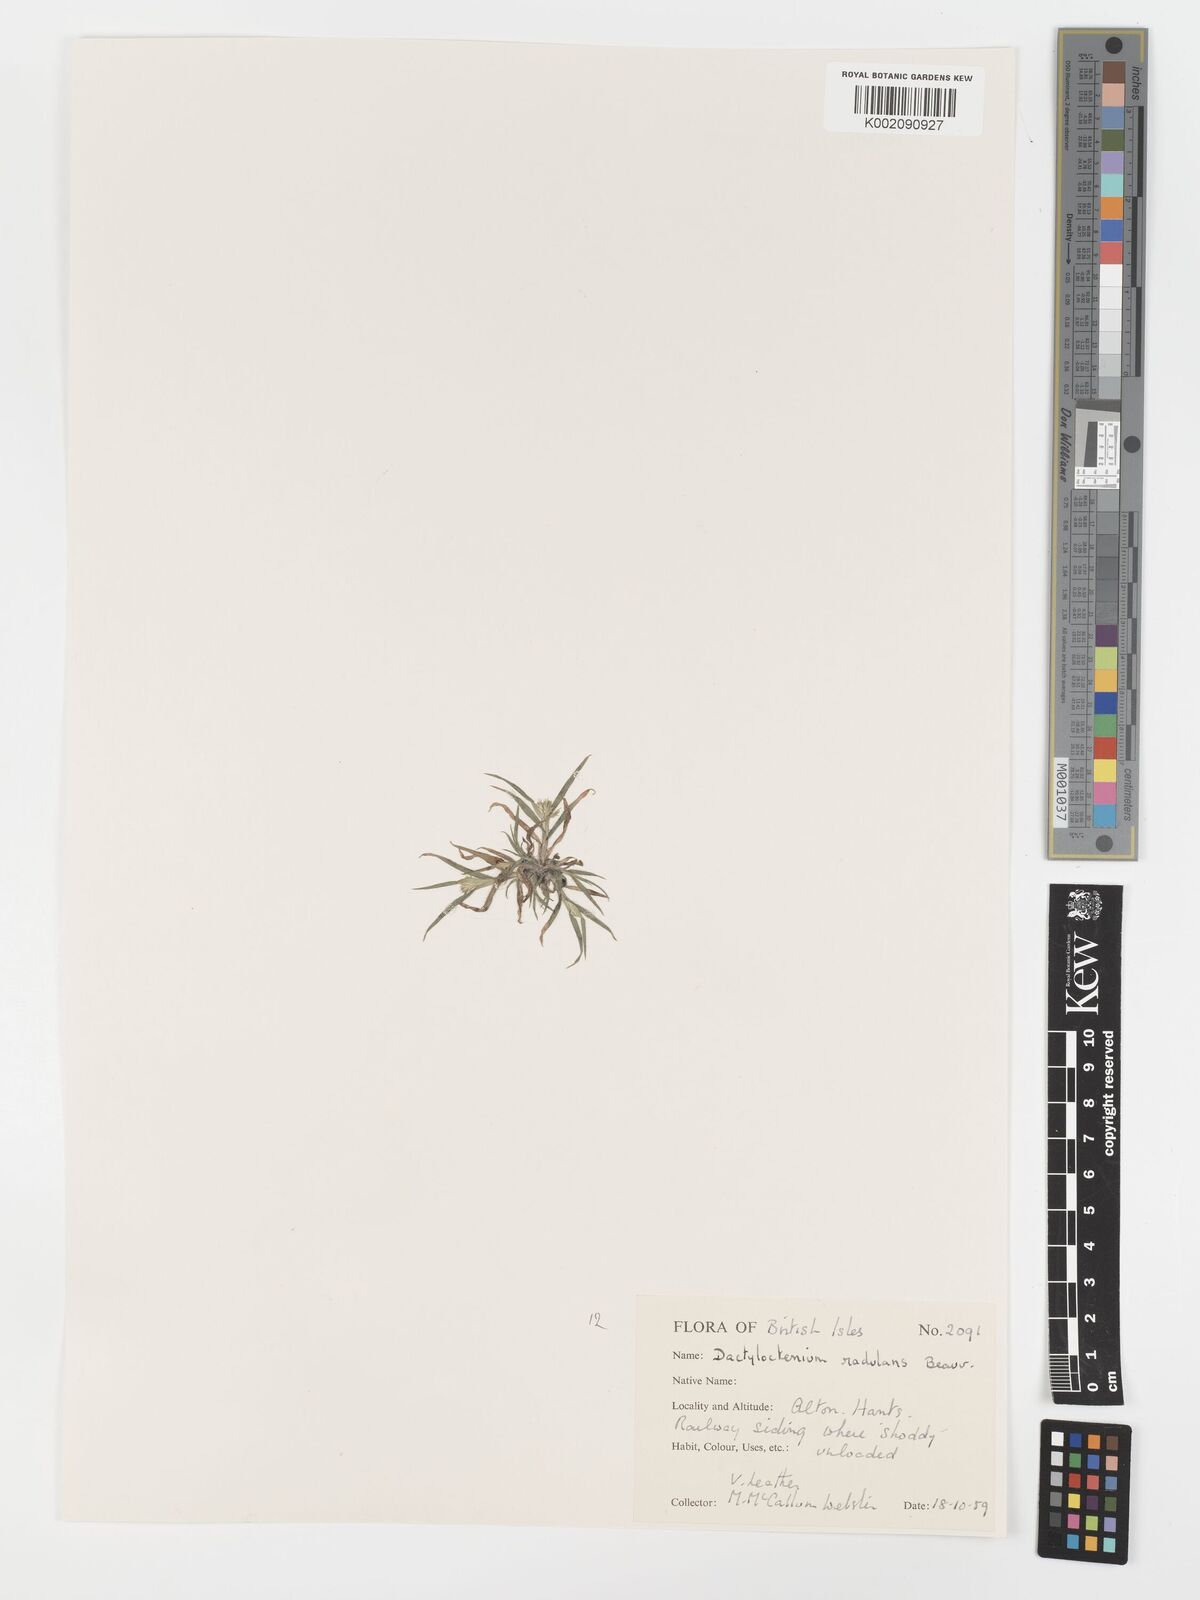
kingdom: Plantae
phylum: Tracheophyta
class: Liliopsida
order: Poales
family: Poaceae
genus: Dactyloctenium
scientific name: Dactyloctenium radulans
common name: Button-grass
